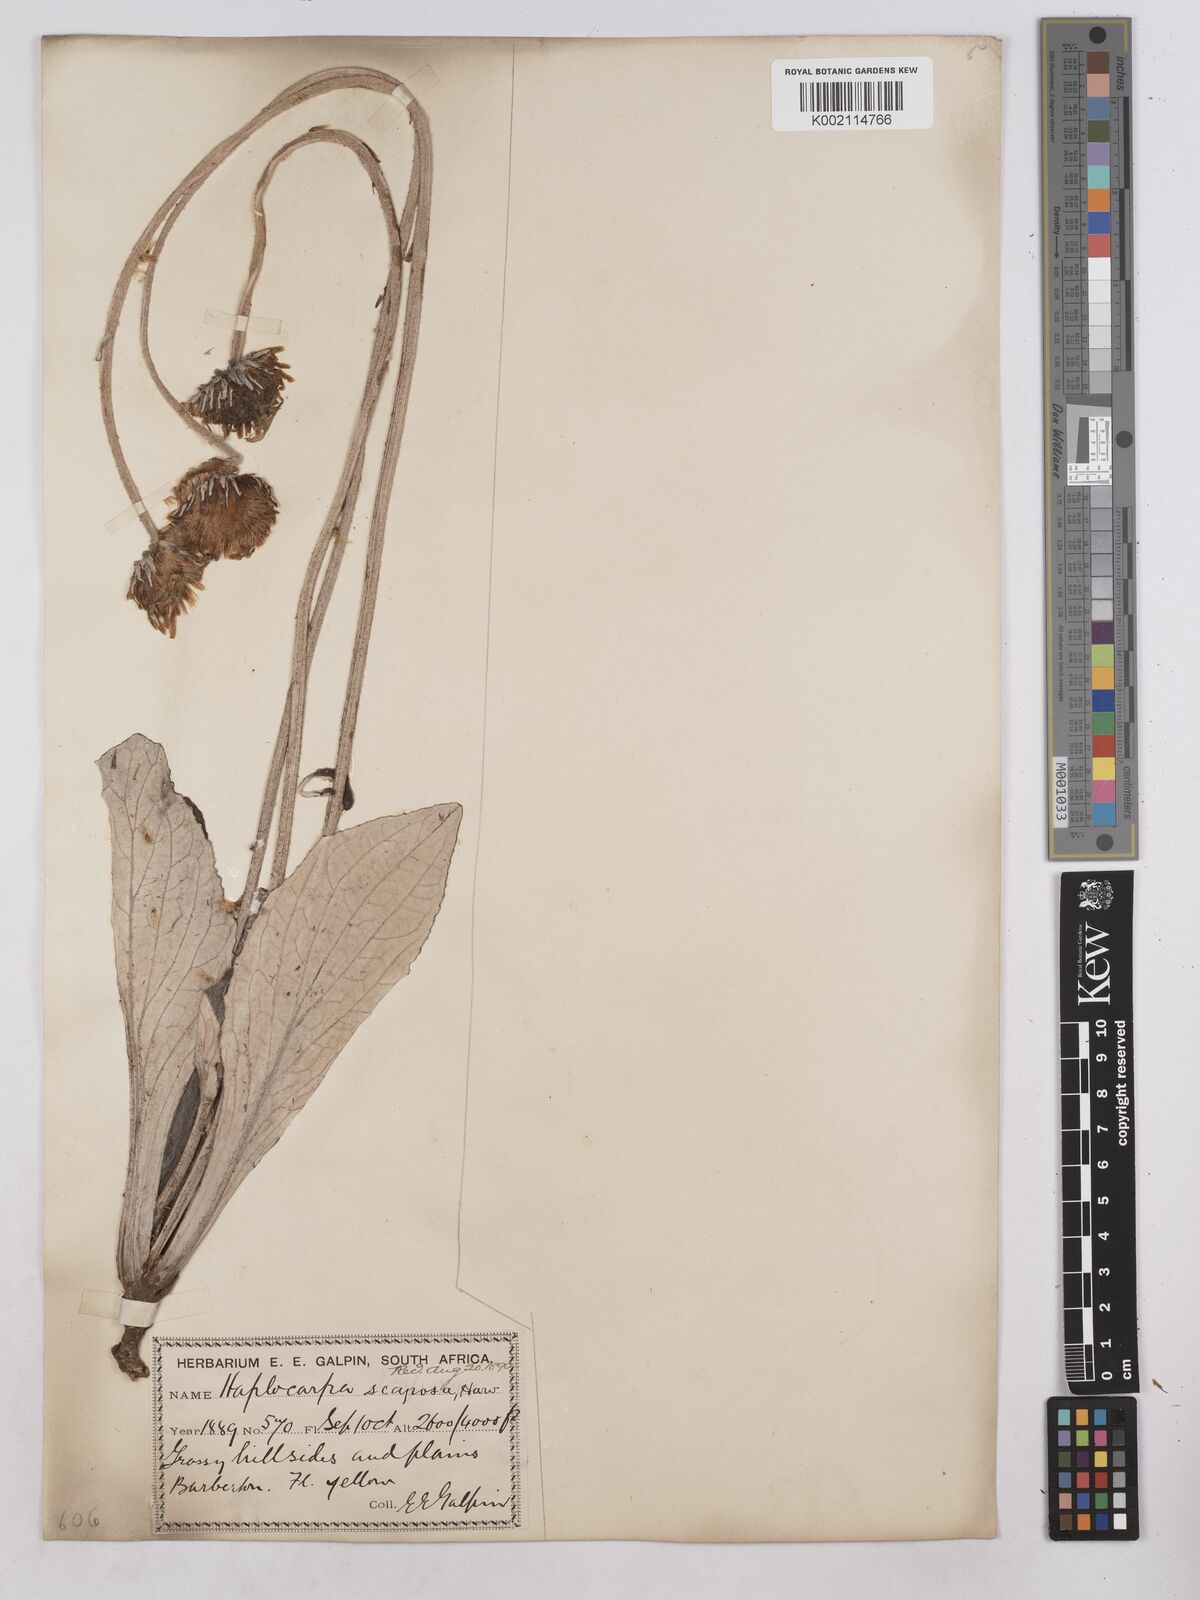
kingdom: Plantae
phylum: Tracheophyta
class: Magnoliopsida
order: Asterales
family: Asteraceae
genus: Haplocarpha
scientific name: Haplocarpha scaposa
